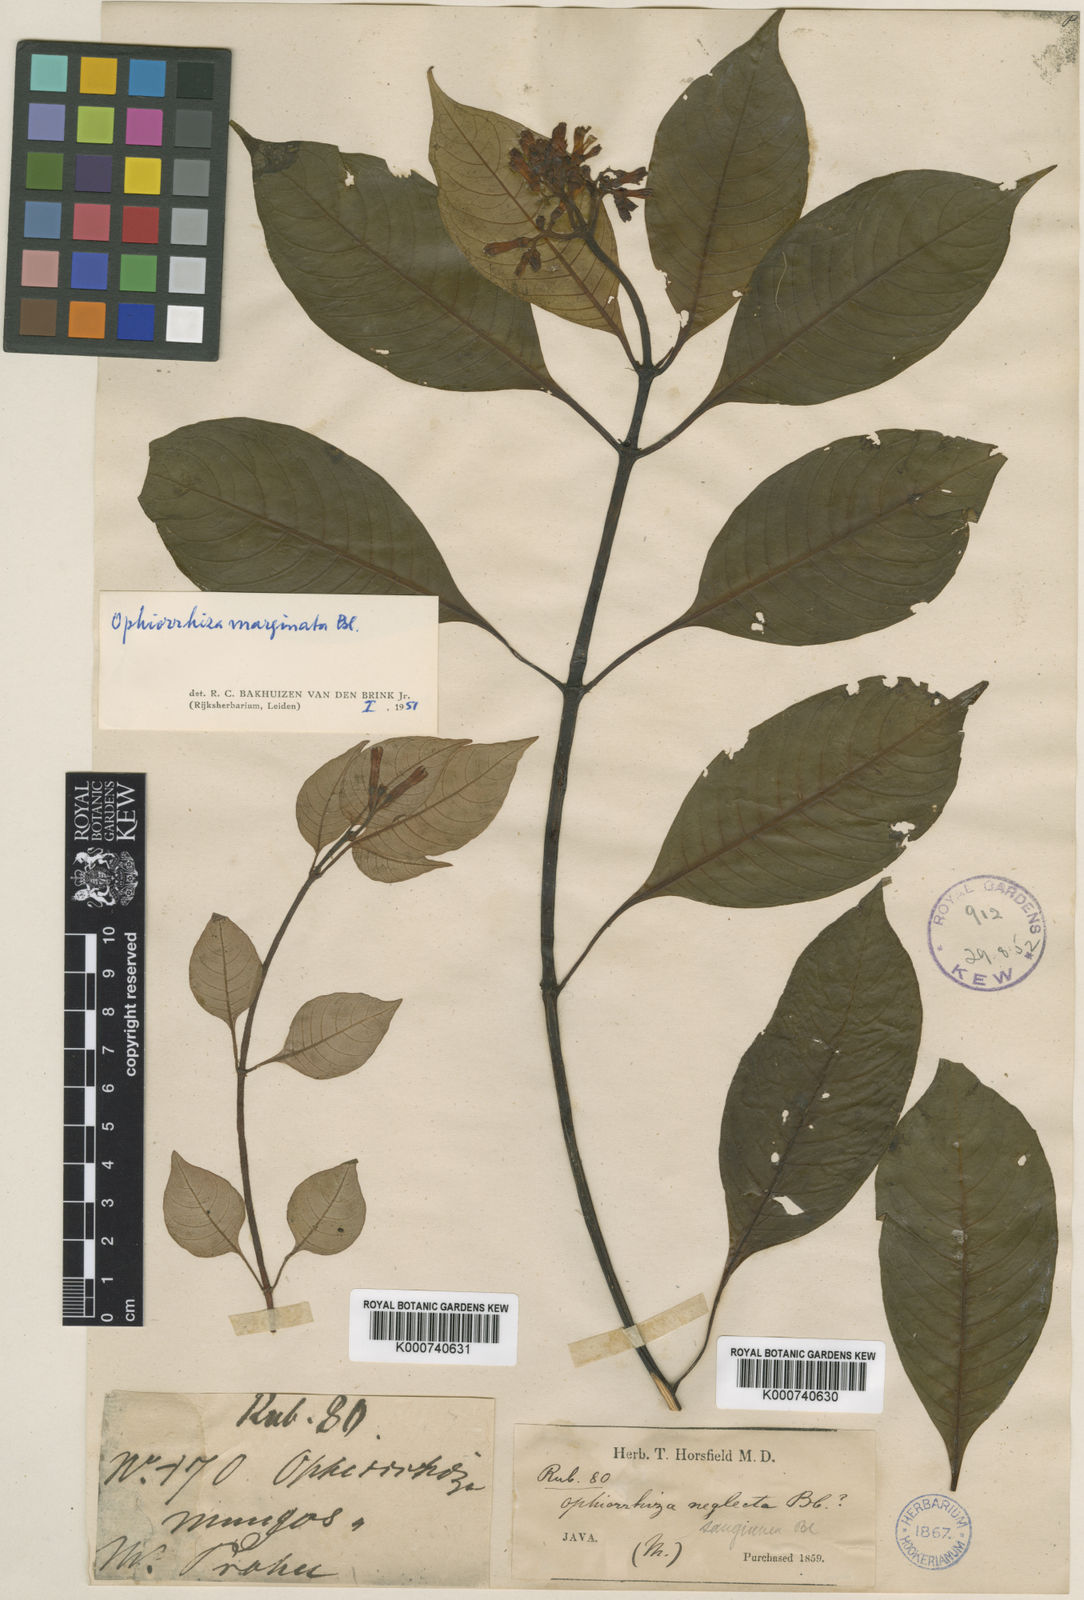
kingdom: Plantae
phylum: Tracheophyta
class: Magnoliopsida
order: Gentianales
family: Rubiaceae
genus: Ophiorrhiza
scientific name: Ophiorrhiza marginata
